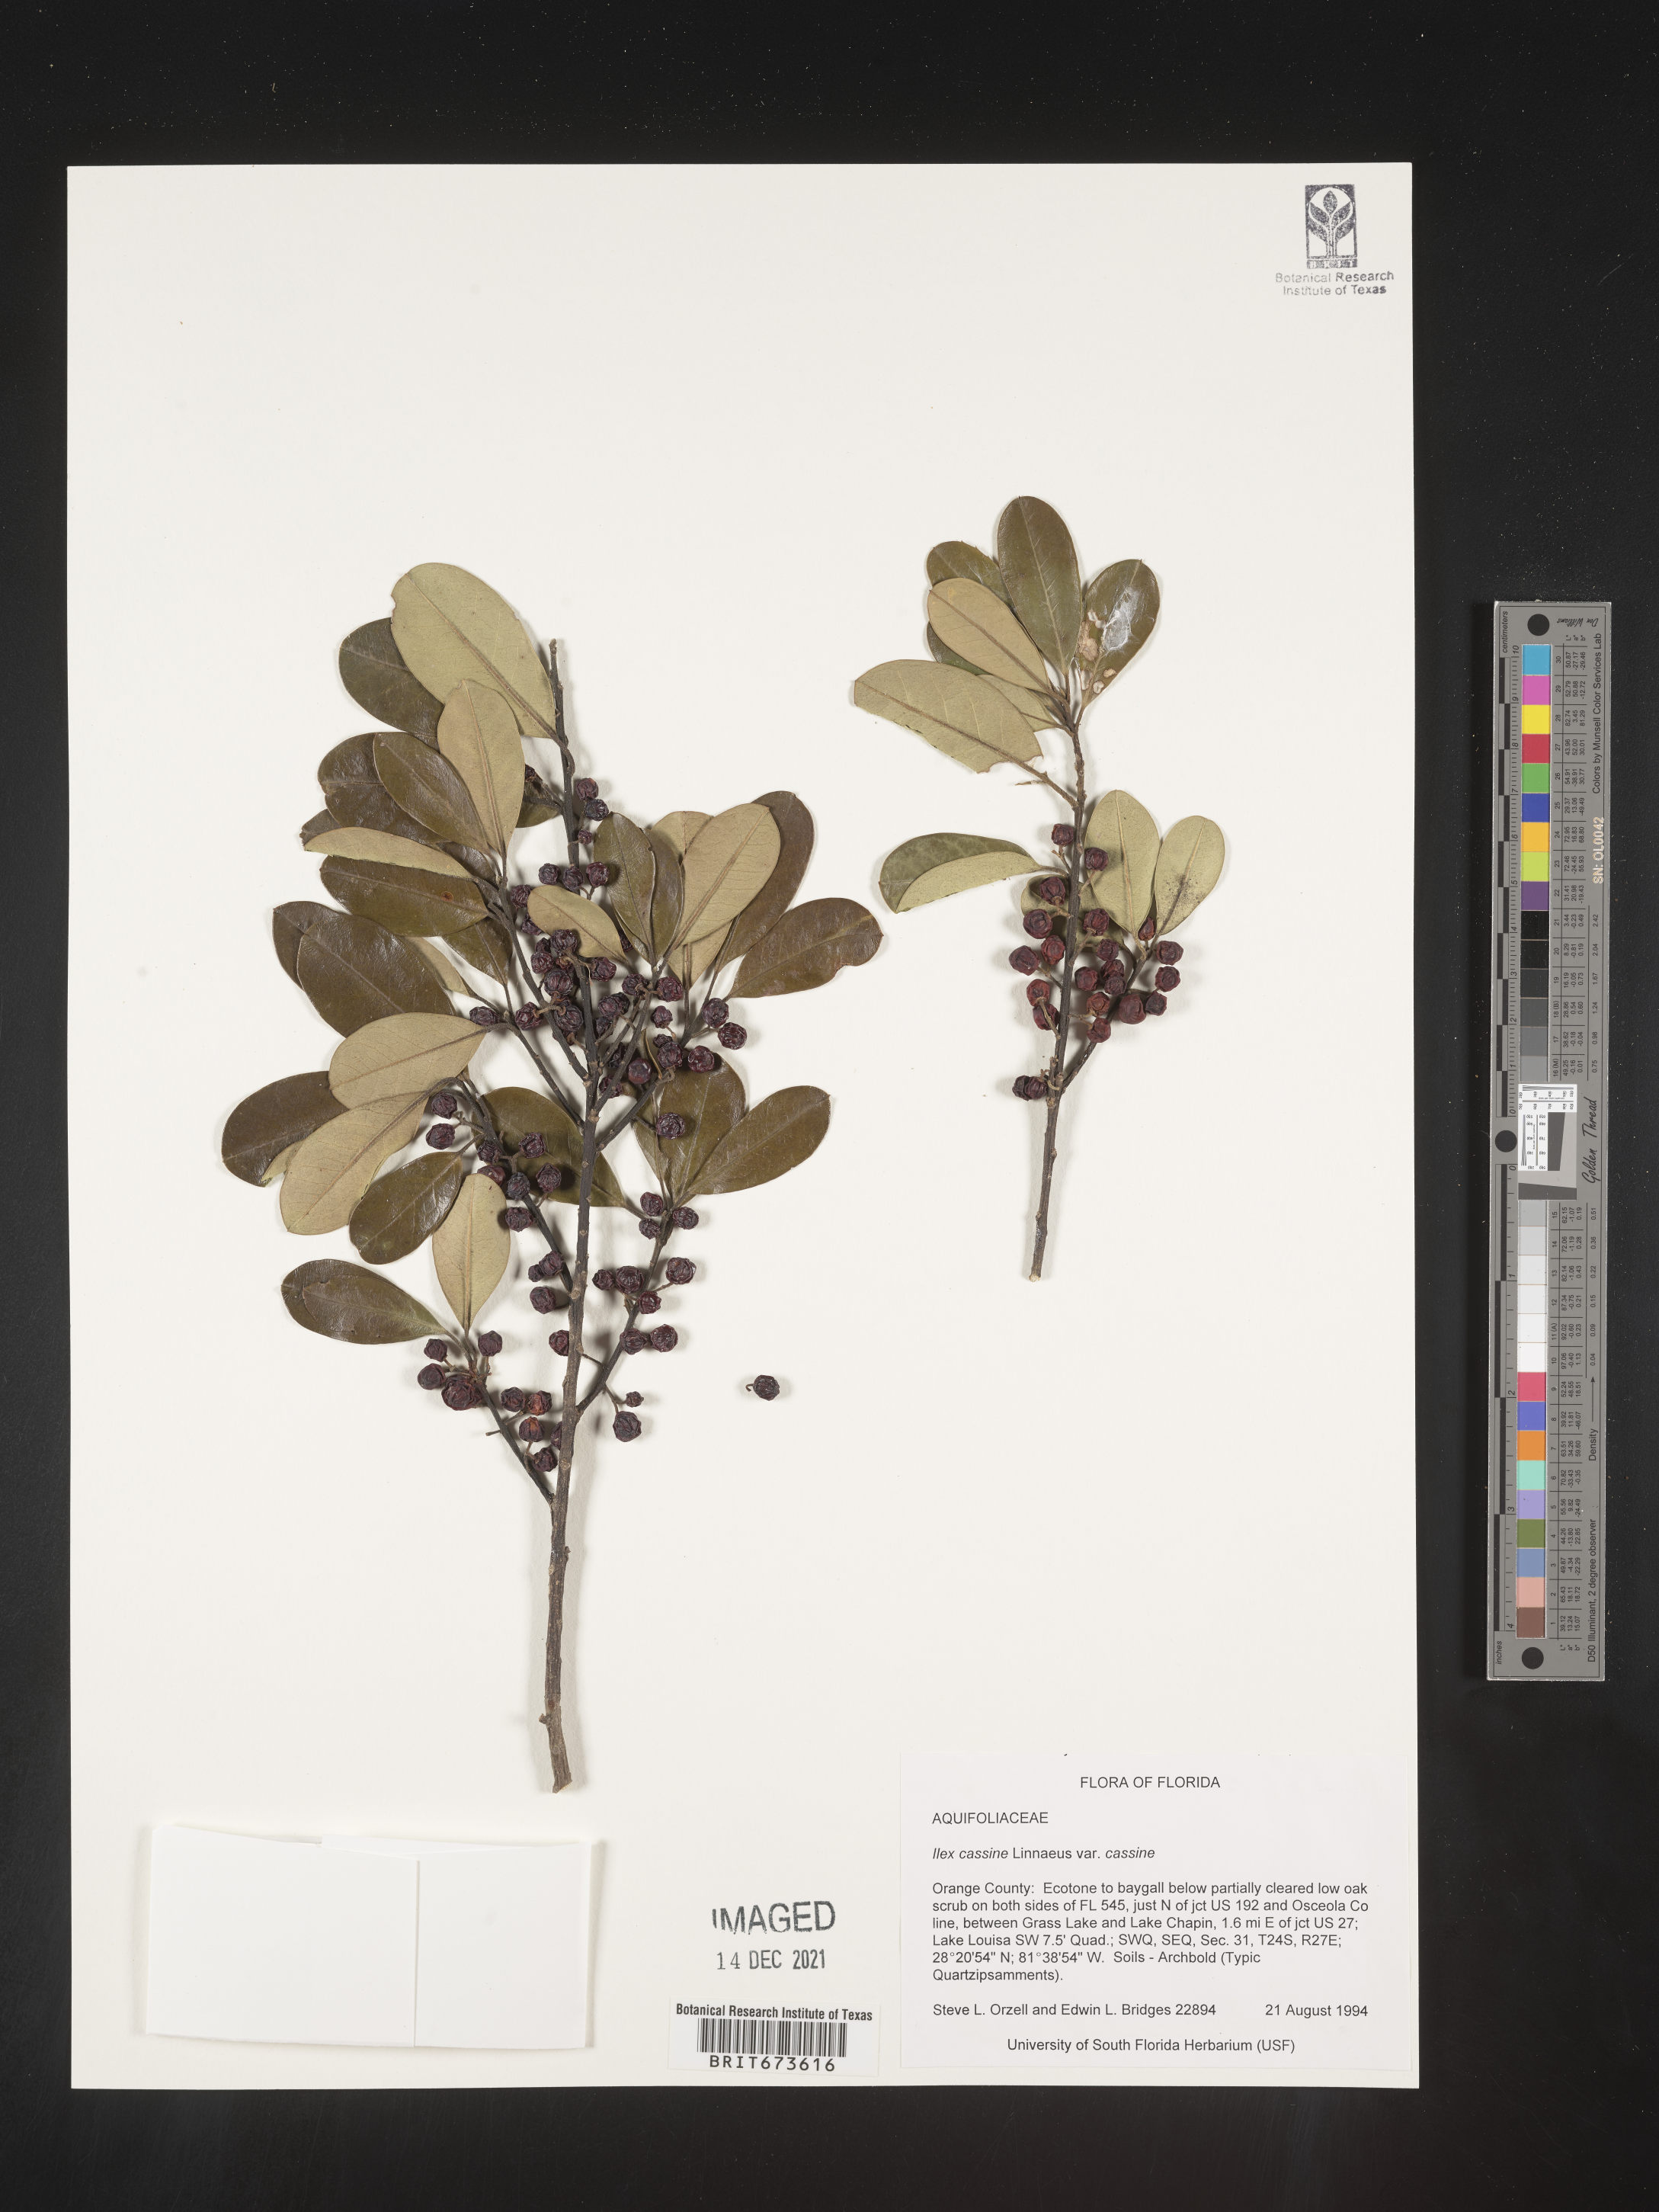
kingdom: Plantae
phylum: Tracheophyta
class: Magnoliopsida
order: Aquifoliales
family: Aquifoliaceae
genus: Ilex
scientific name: Ilex cassine
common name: Dahoon
